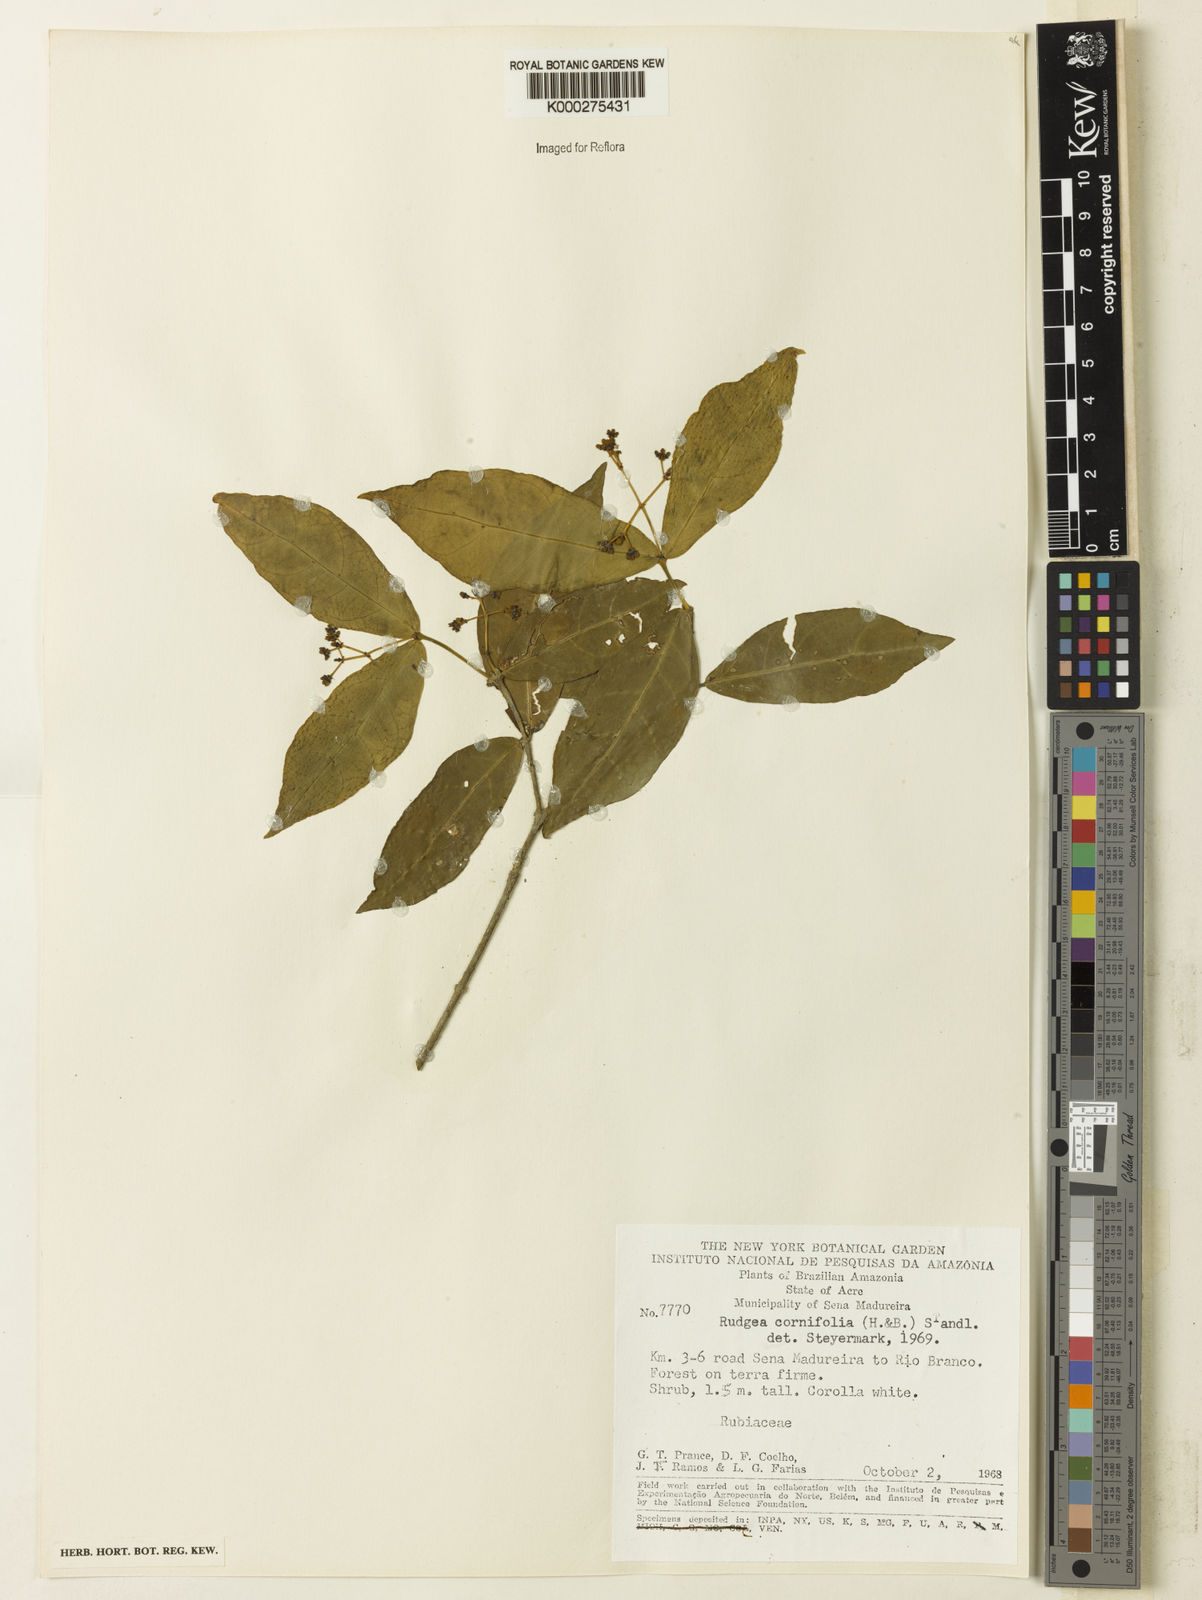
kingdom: Plantae
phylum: Tracheophyta
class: Magnoliopsida
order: Gentianales
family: Rubiaceae
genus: Rudgea
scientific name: Rudgea cornifolia
